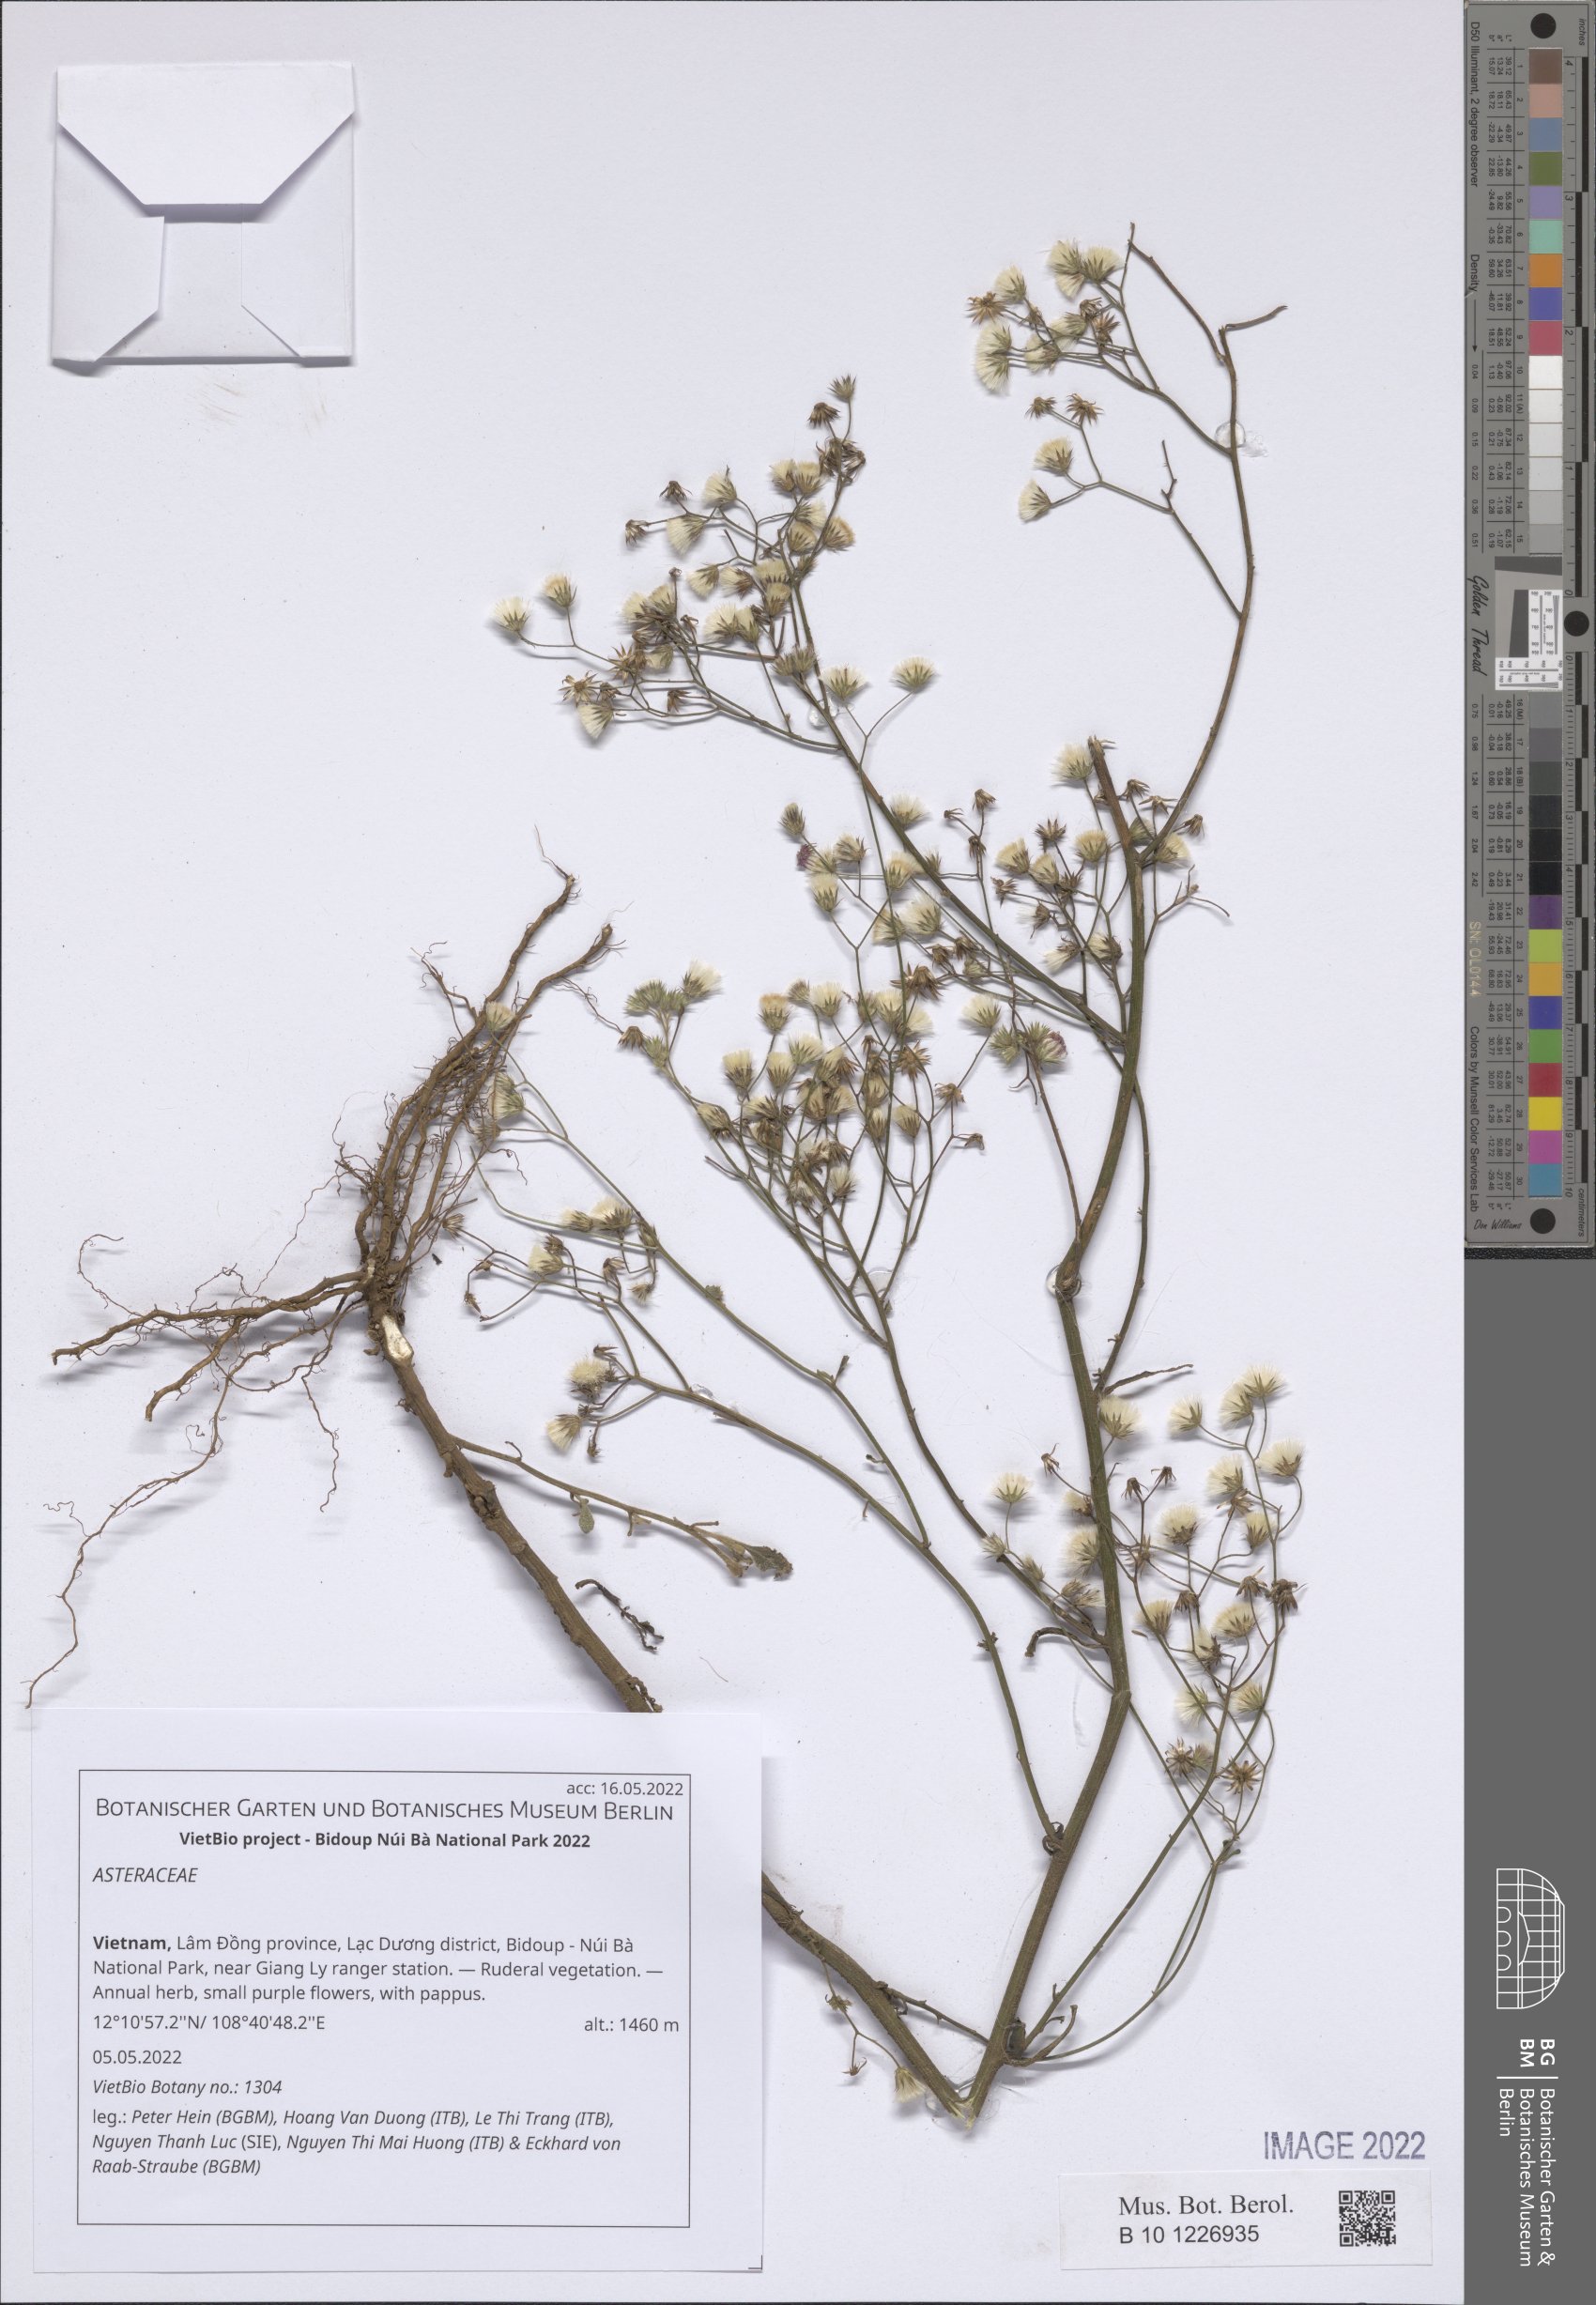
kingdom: Plantae
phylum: Tracheophyta
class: Magnoliopsida
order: Asterales
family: Asteraceae
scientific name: Asteraceae
